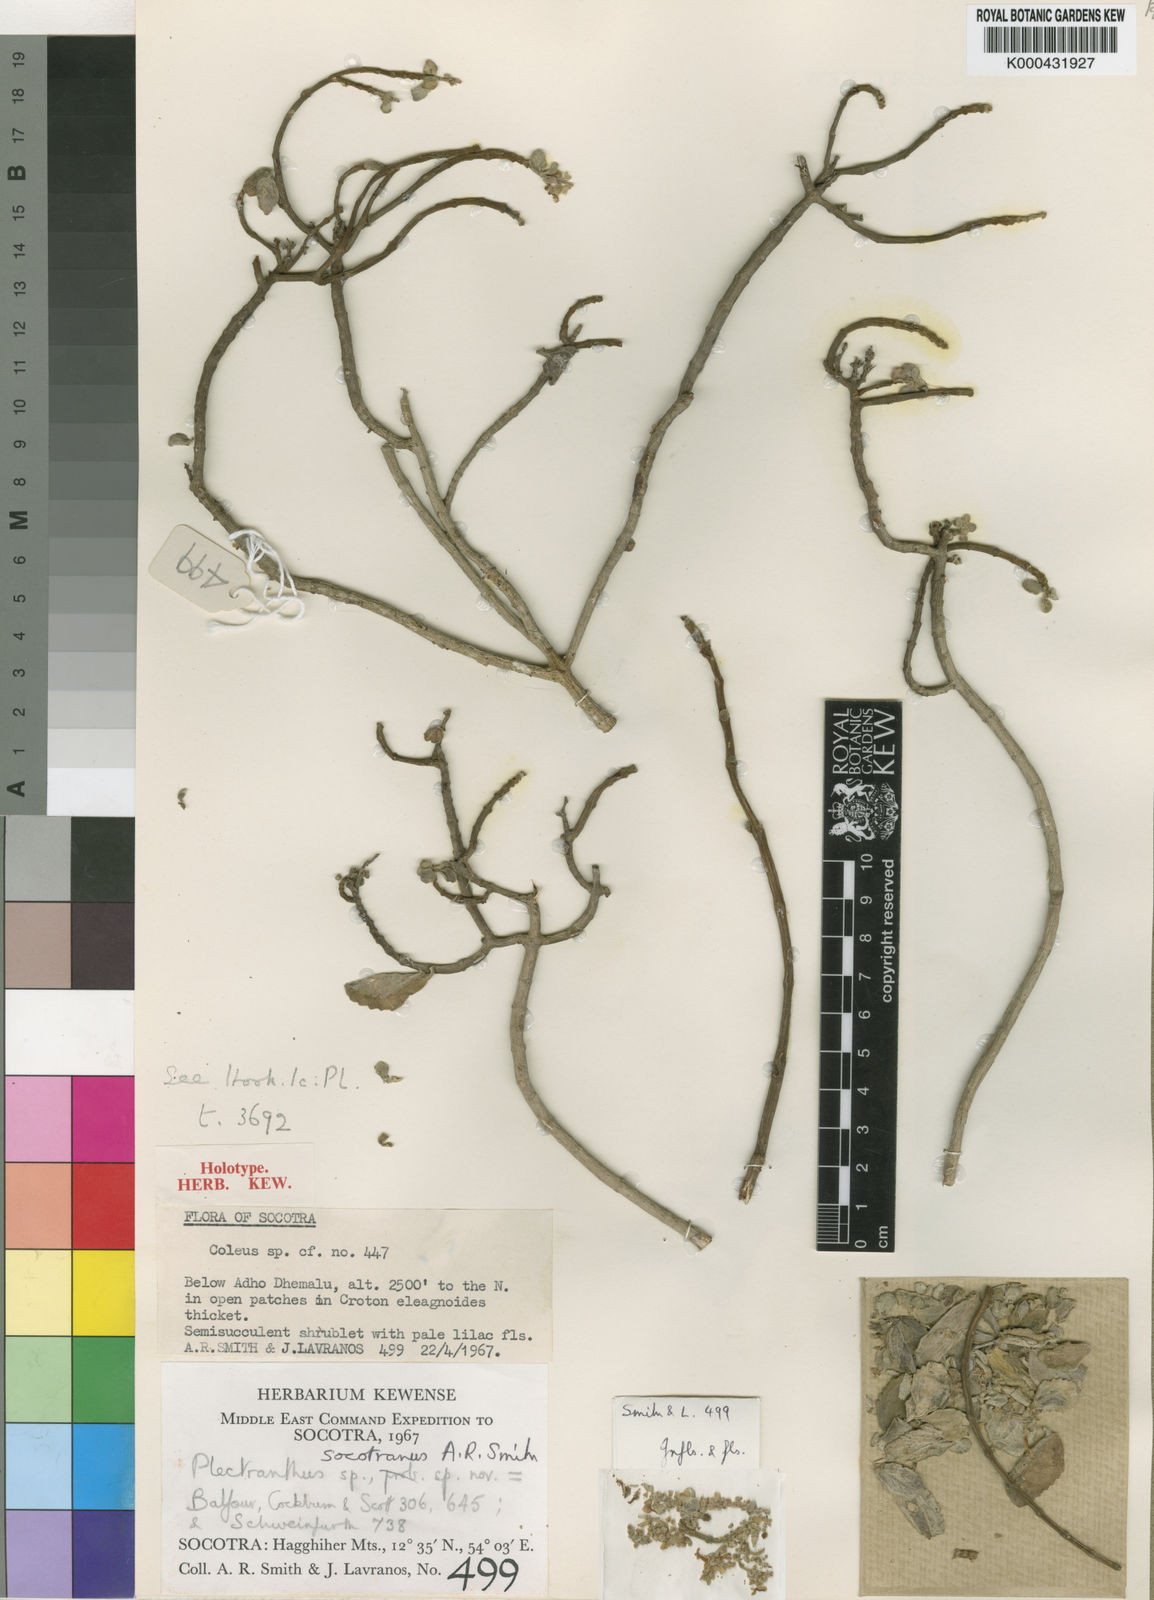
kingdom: Plantae
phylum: Tracheophyta
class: Magnoliopsida
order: Lamiales
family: Lamiaceae
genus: Coleus
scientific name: Coleus socotranus
